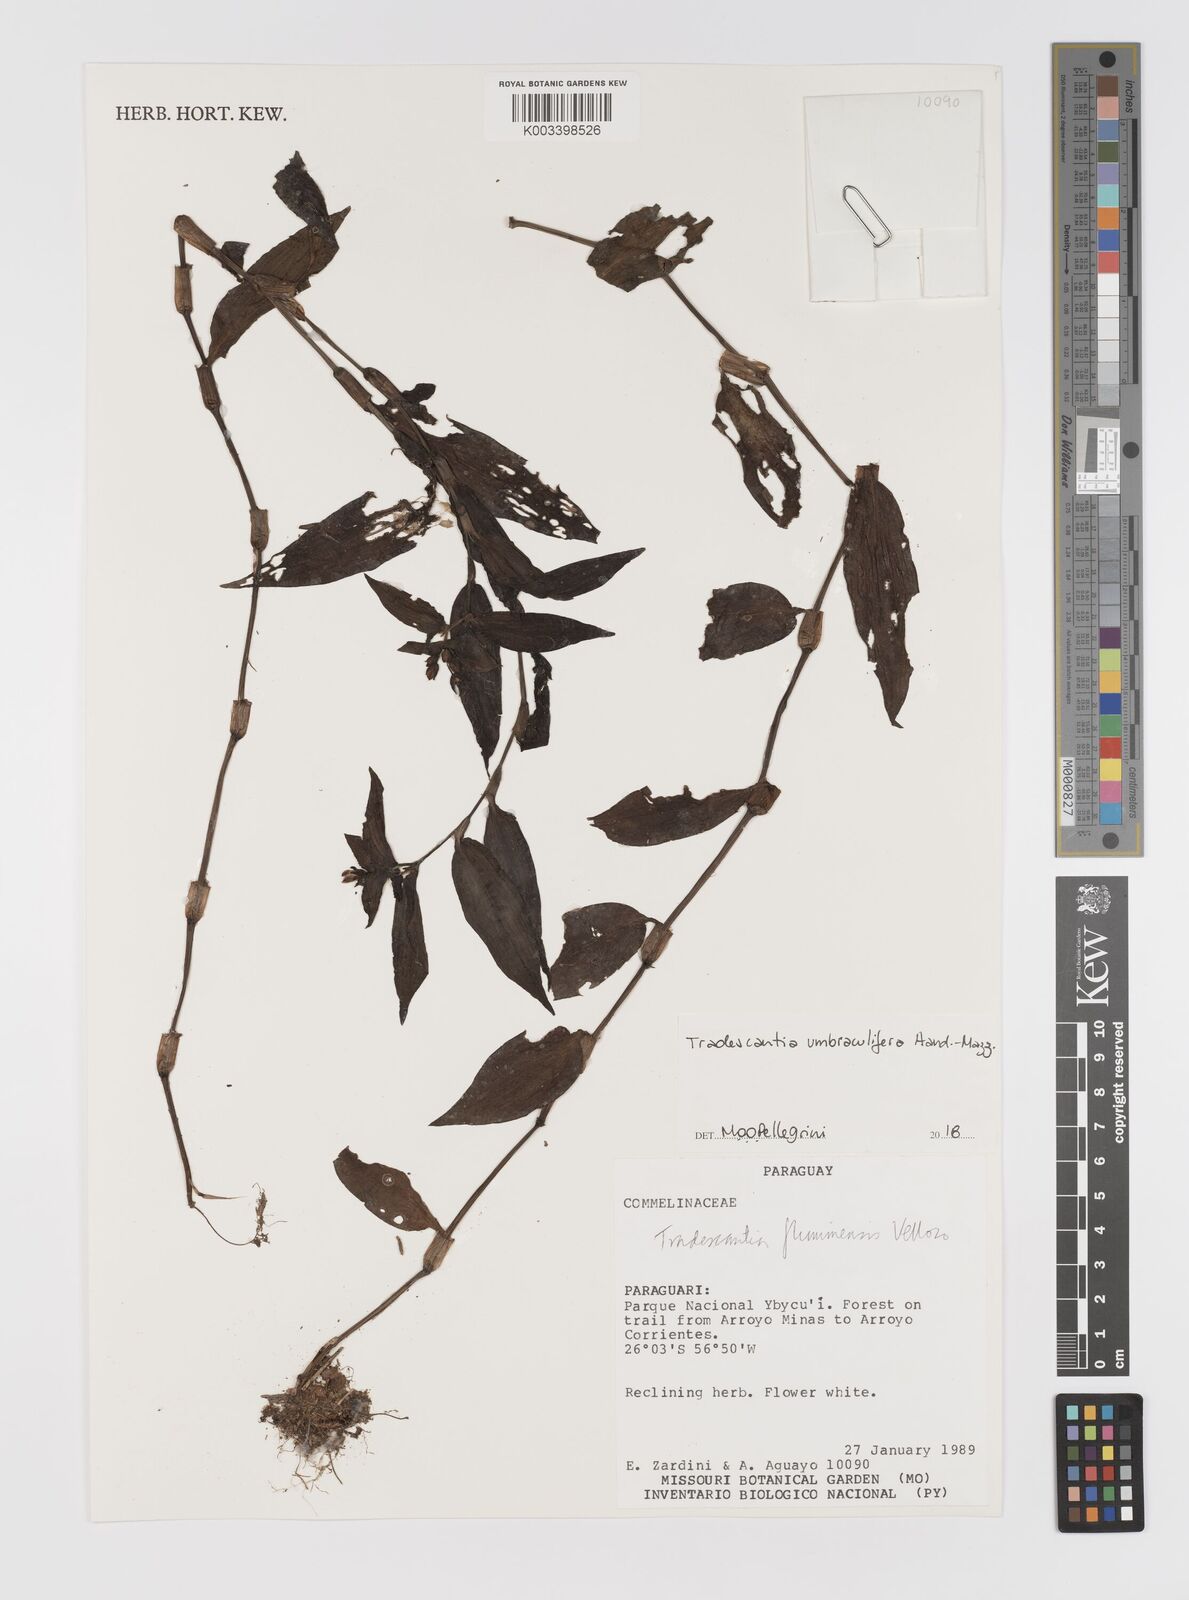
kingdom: Plantae
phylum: Tracheophyta
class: Liliopsida
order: Commelinales
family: Commelinaceae
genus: Tradescantia
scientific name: Tradescantia umbraculifera
